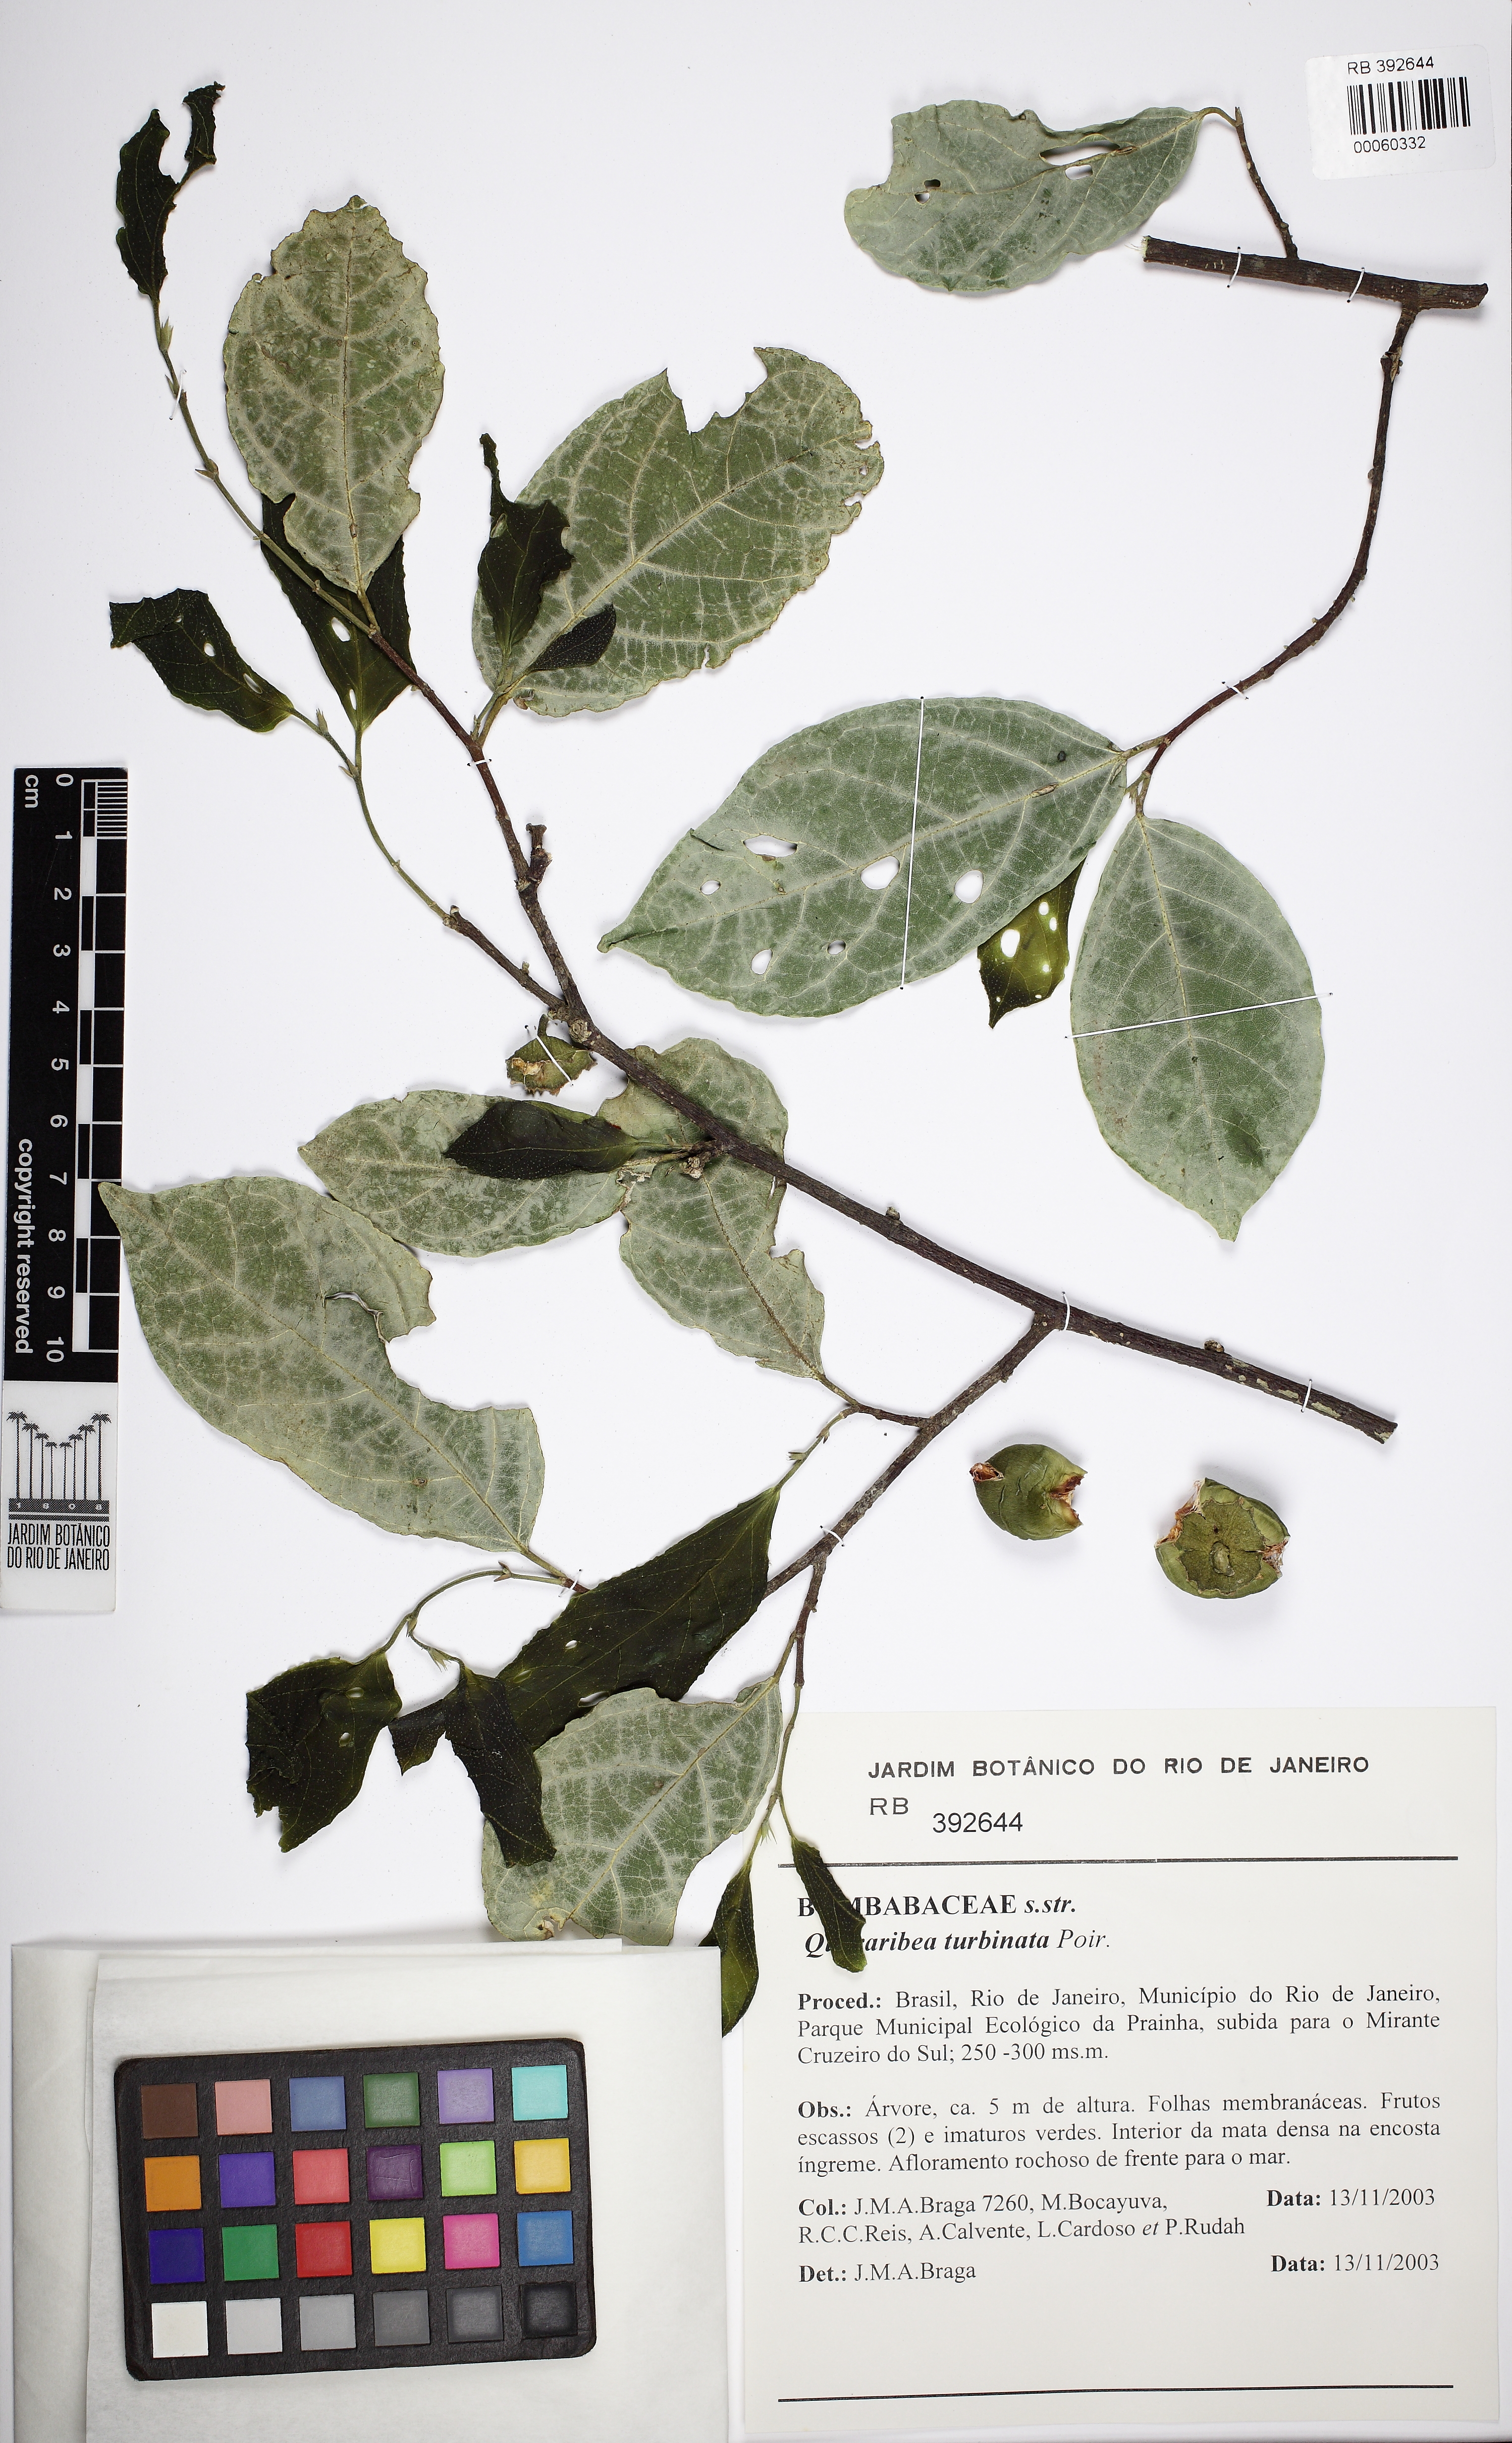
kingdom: Plantae
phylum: Tracheophyta
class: Magnoliopsida
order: Malvales
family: Malvaceae
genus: Quararibea
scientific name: Quararibea penduliflora
